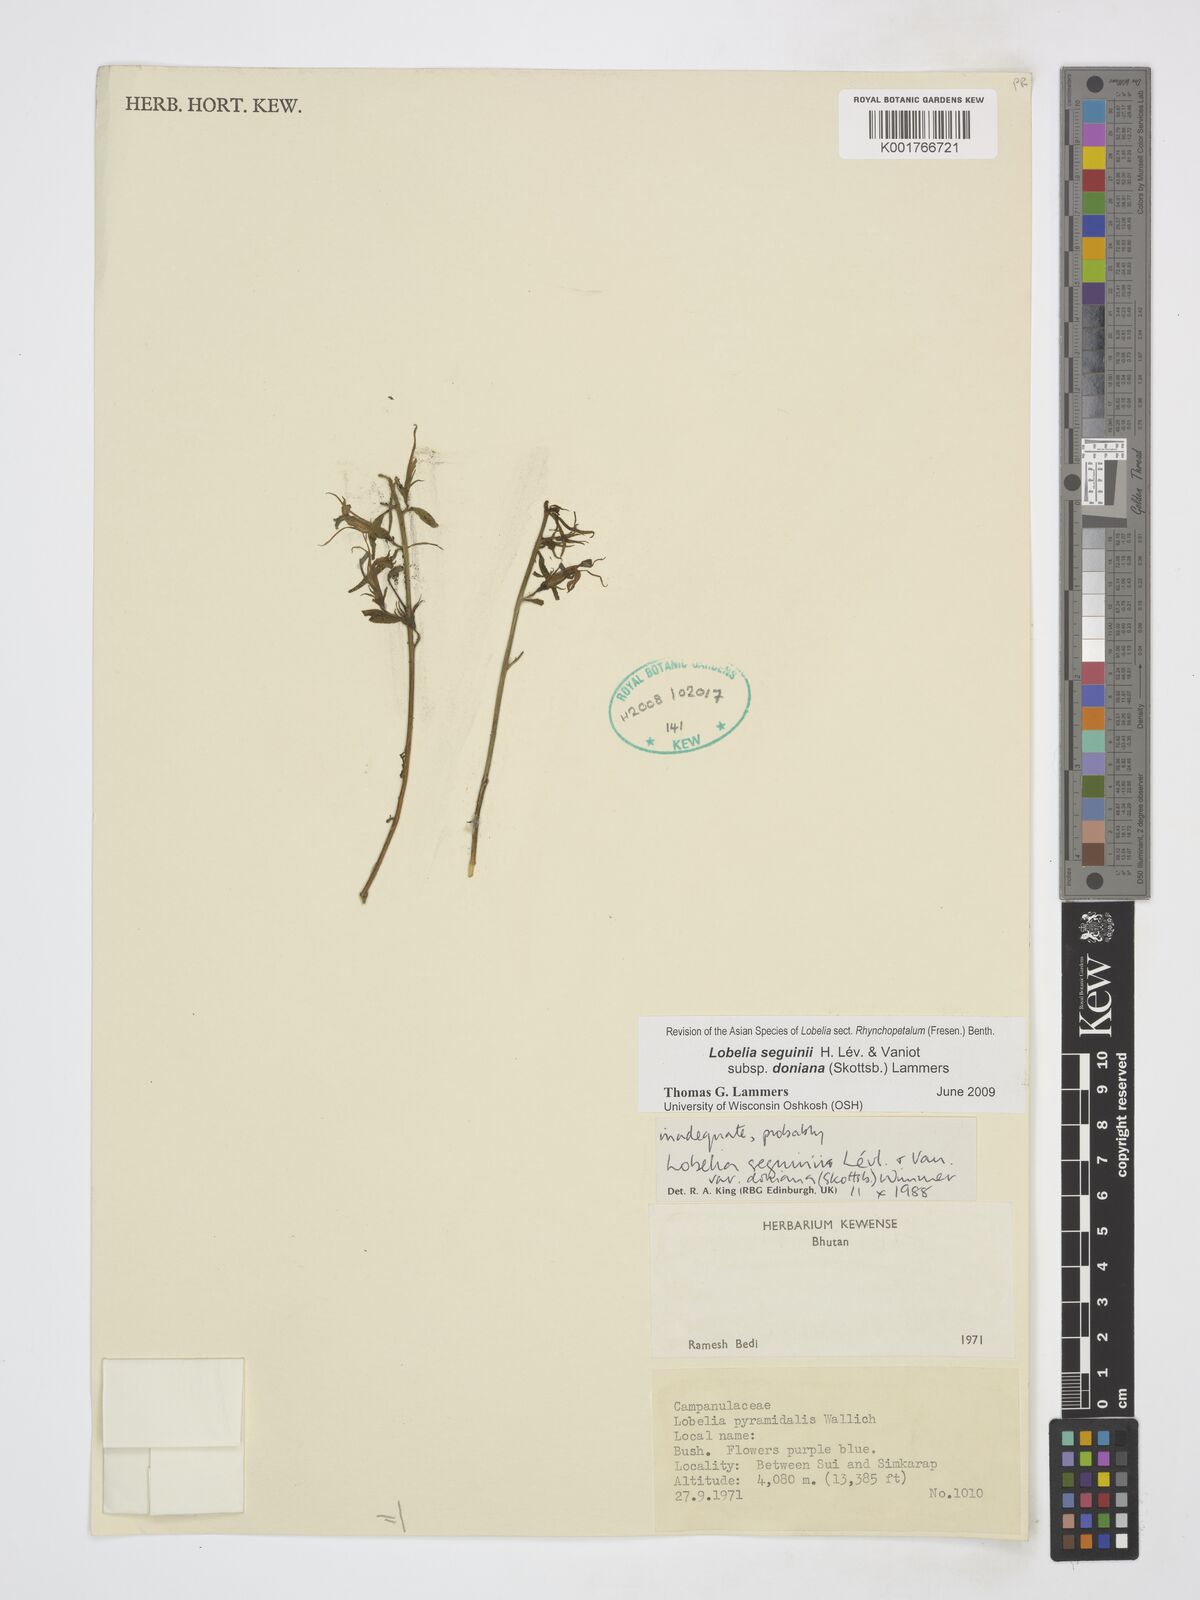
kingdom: Plantae
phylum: Tracheophyta
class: Magnoliopsida
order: Asterales
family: Campanulaceae
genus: Lobelia
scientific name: Lobelia seguinii
